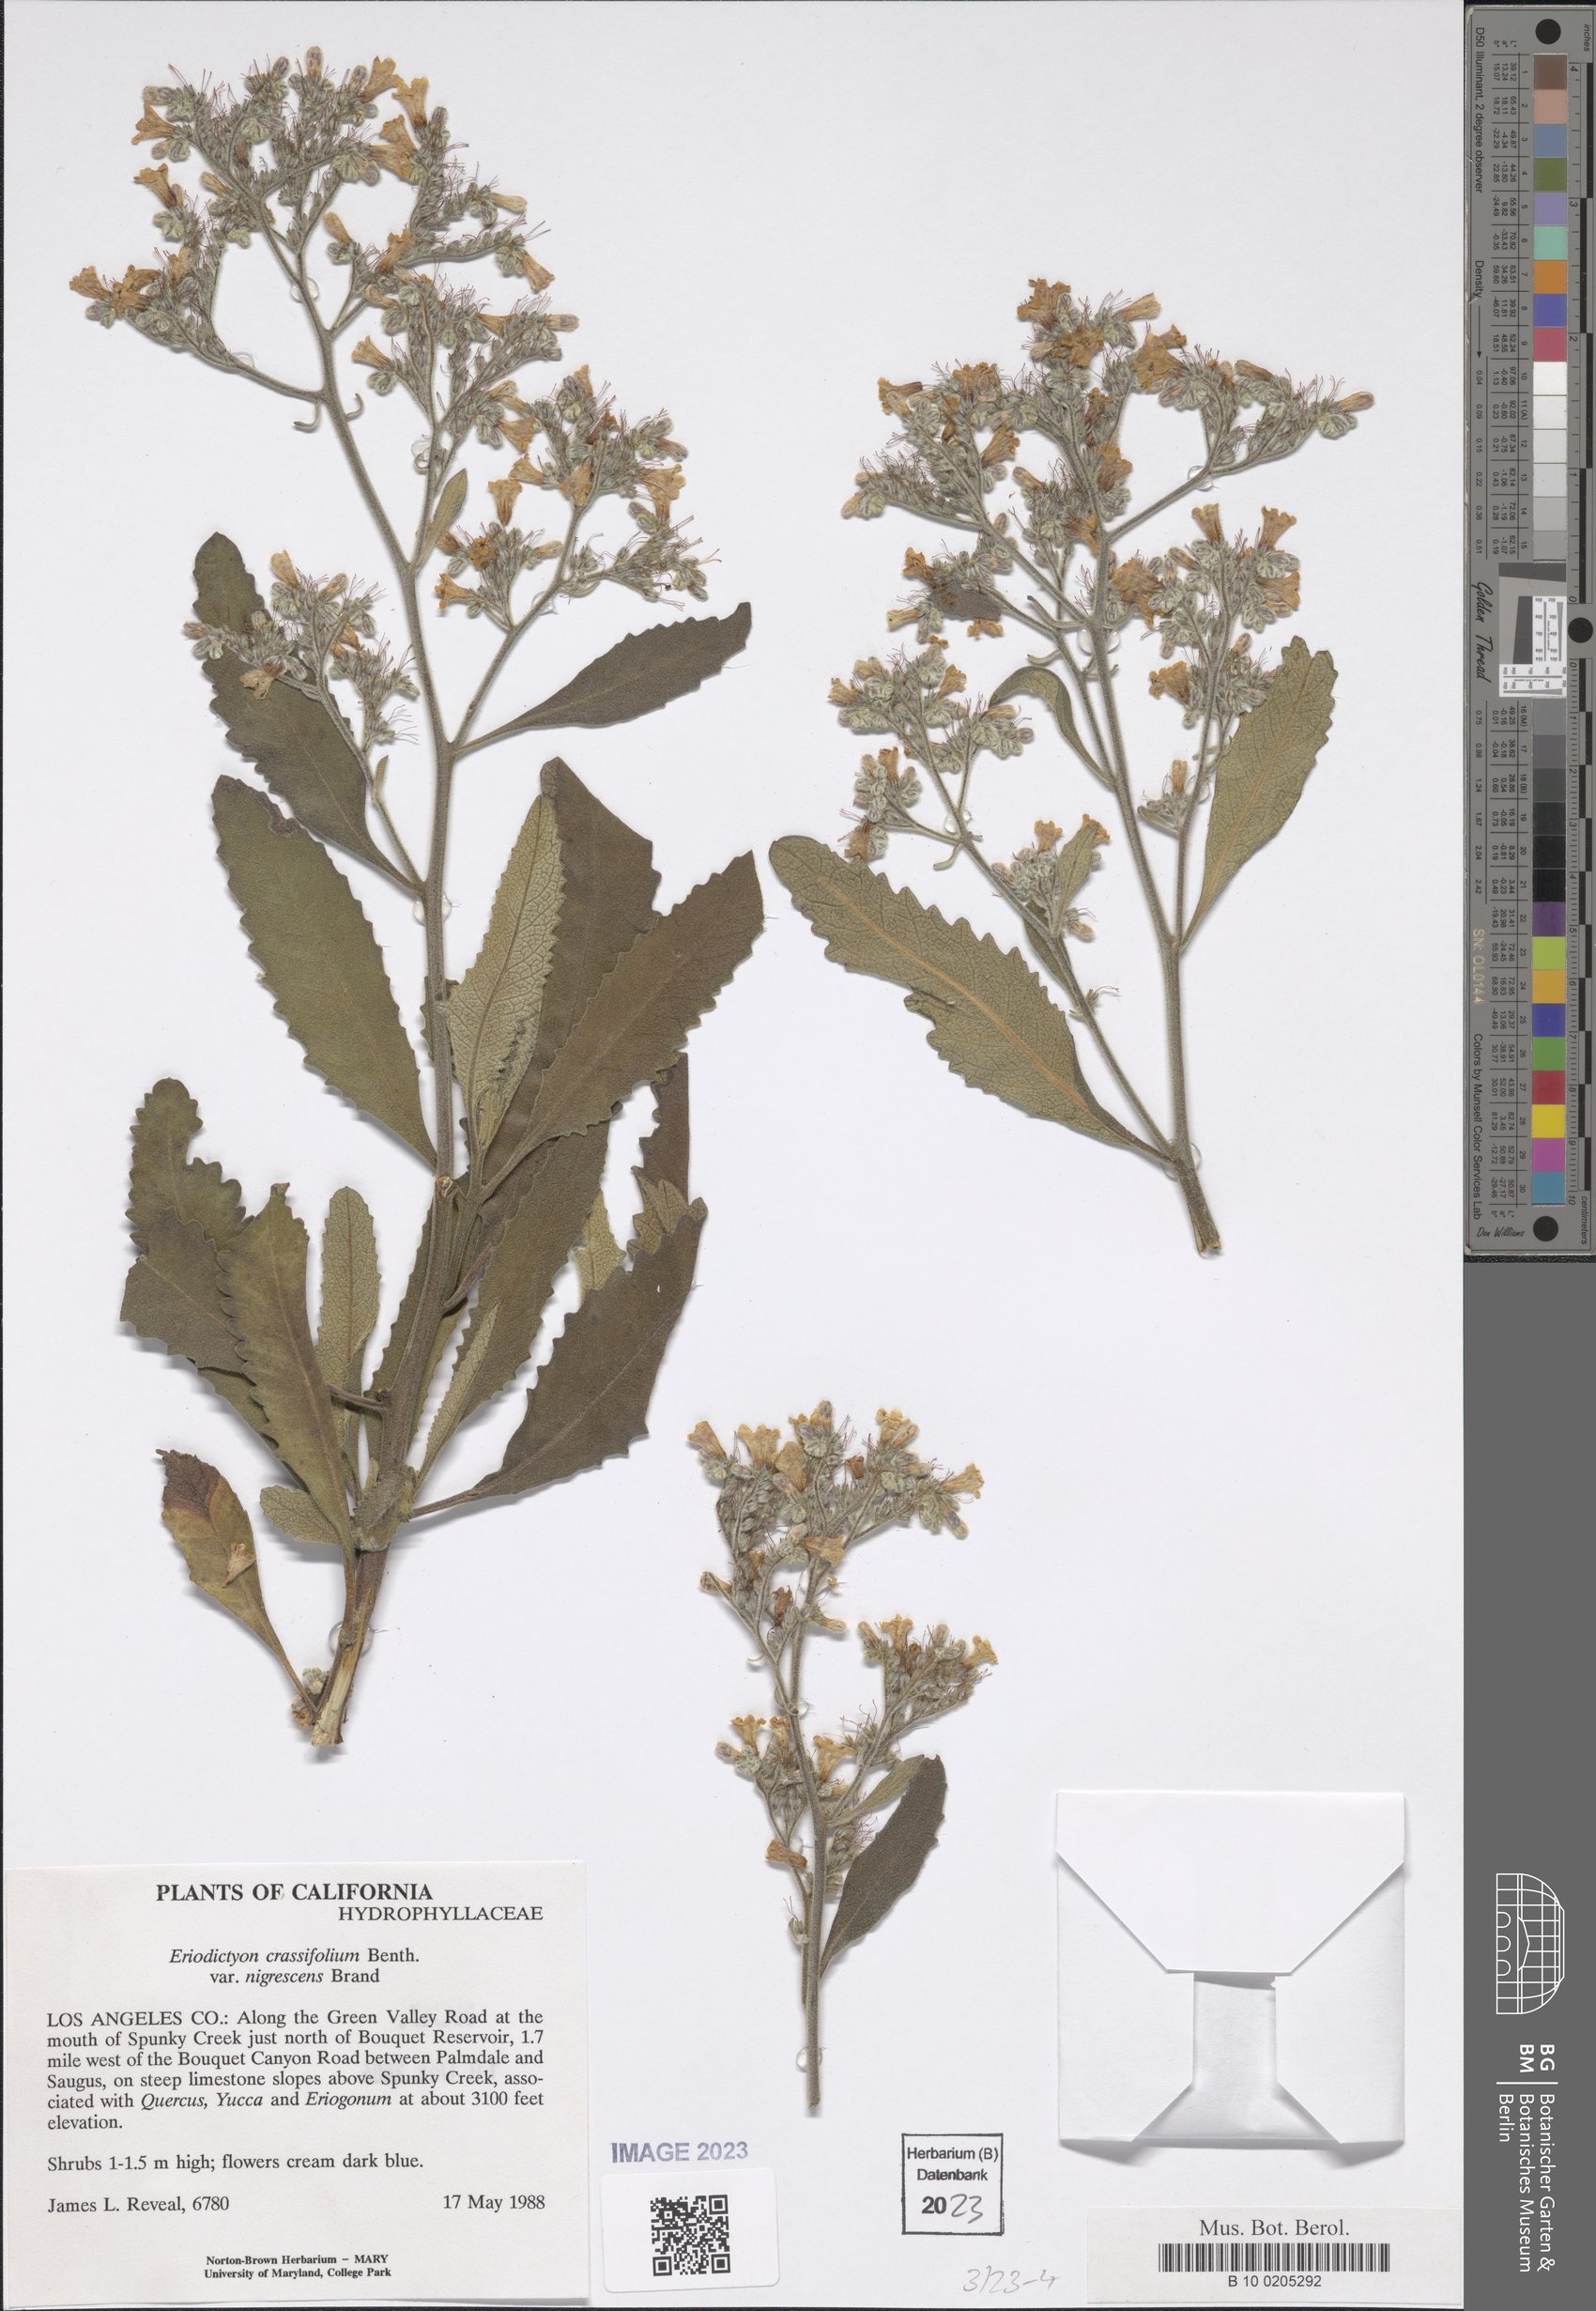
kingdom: Plantae
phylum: Tracheophyta
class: Magnoliopsida
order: Boraginales
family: Namaceae
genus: Eriodictyon
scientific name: Eriodictyon crassifolium
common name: Thick-leaf yerba-santa
